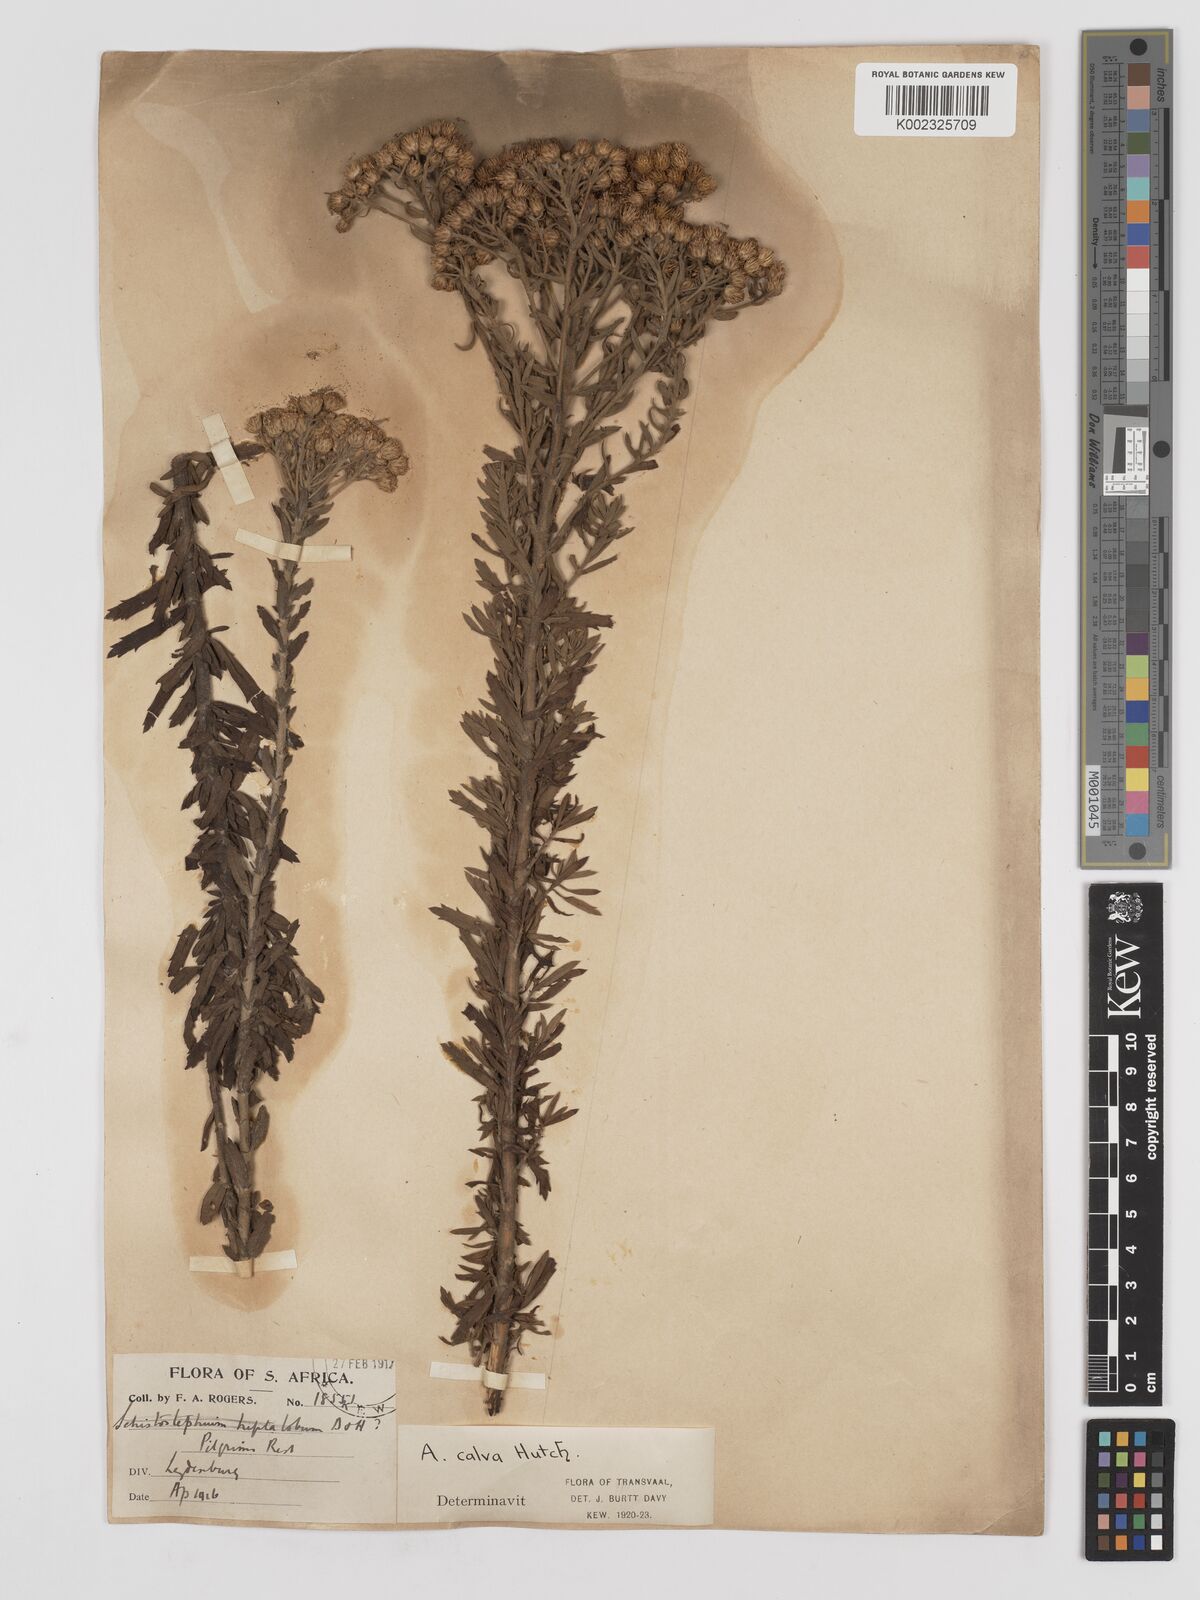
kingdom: Plantae
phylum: Tracheophyta
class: Magnoliopsida
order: Asterales
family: Asteraceae
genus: Inulanthera
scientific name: Inulanthera dregeana
